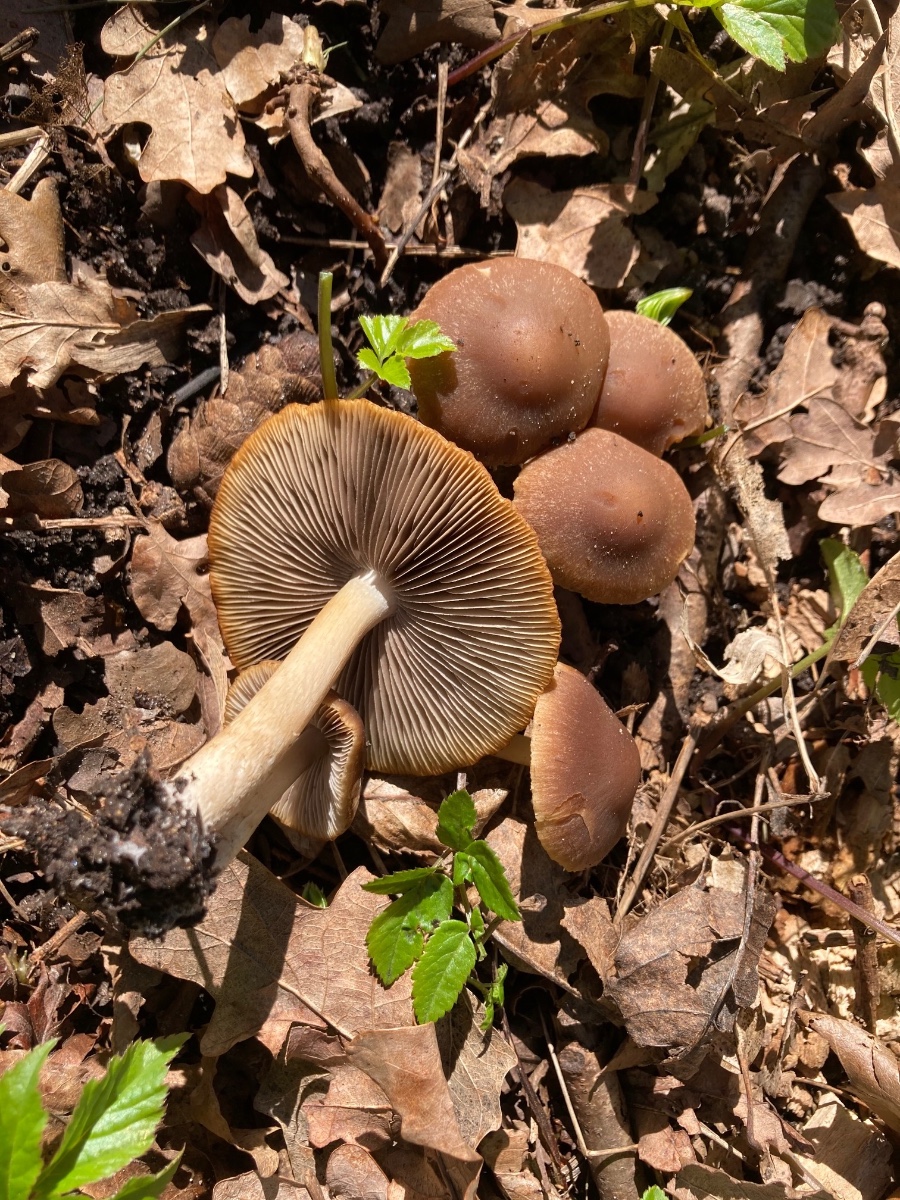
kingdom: Fungi
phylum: Basidiomycota
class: Agaricomycetes
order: Agaricales
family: Psathyrellaceae
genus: Psathyrella
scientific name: Psathyrella spadiceogrisea
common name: gråbrun mørkhat
